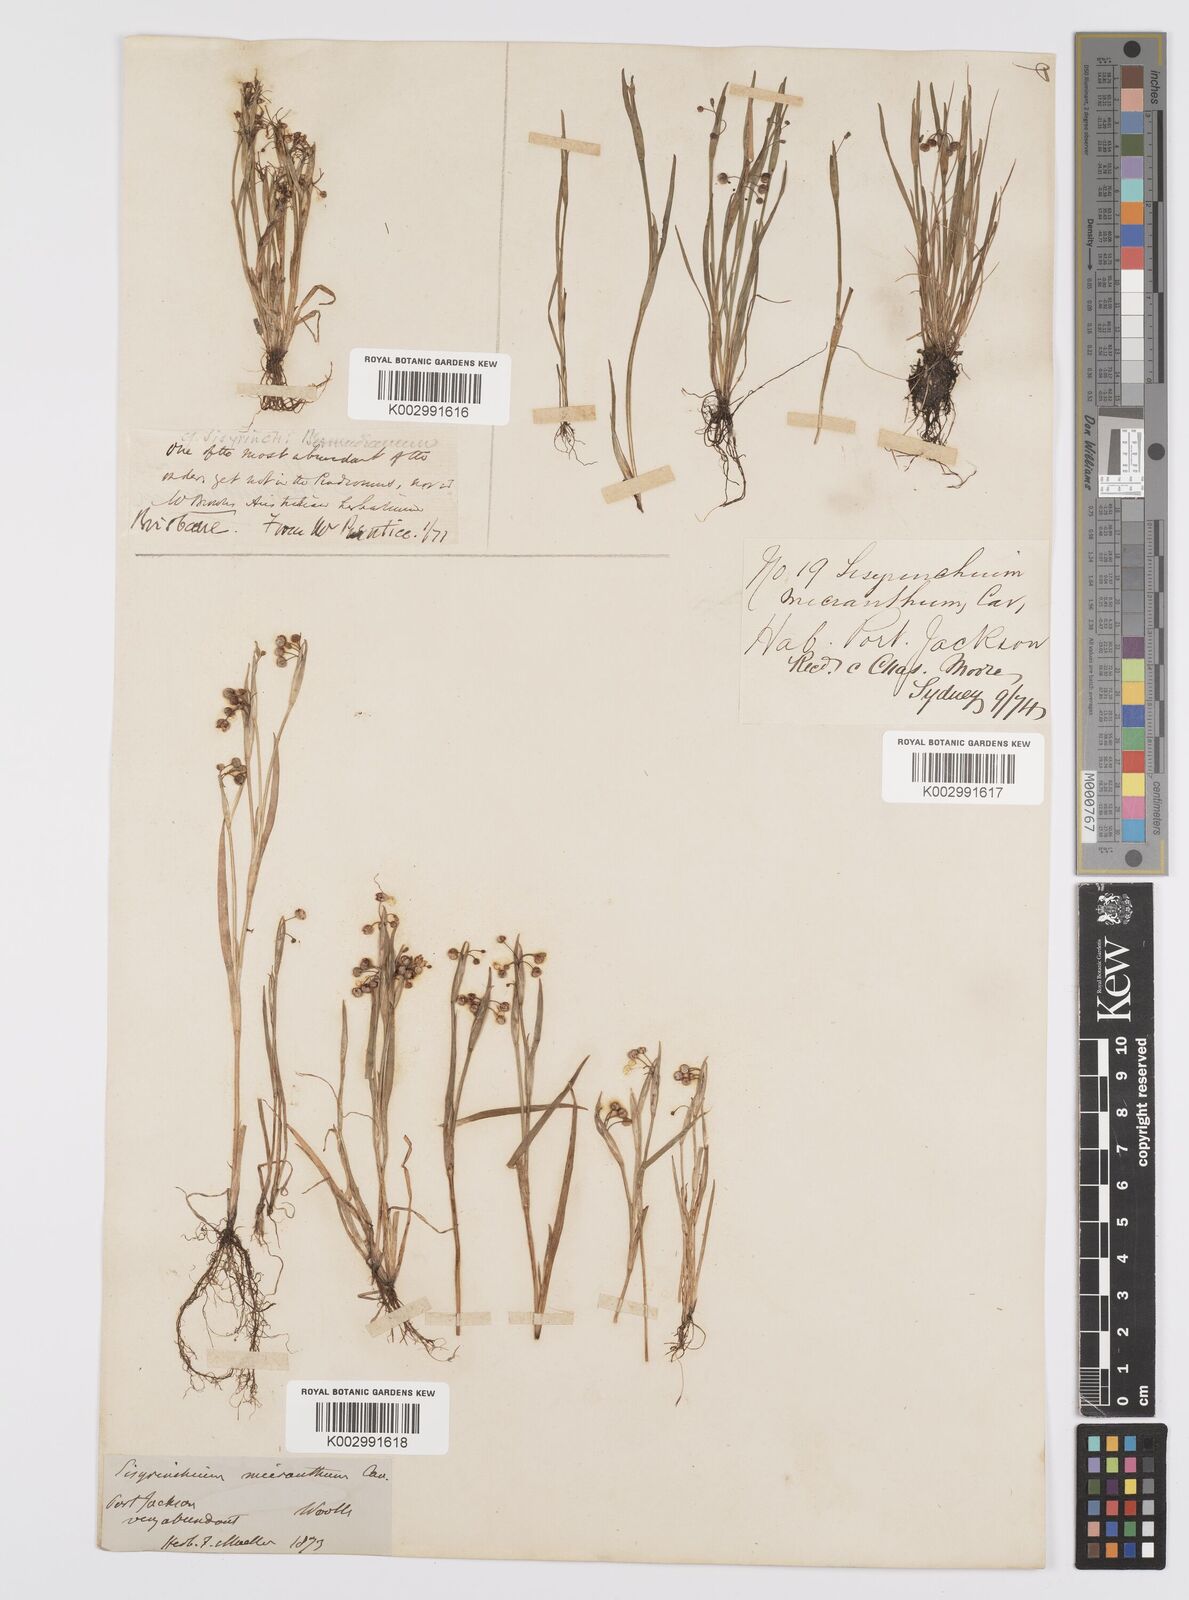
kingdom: Plantae
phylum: Tracheophyta
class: Liliopsida
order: Asparagales
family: Iridaceae
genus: Sisyrinchium
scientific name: Sisyrinchium micranthum
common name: Bermuda pigroot
